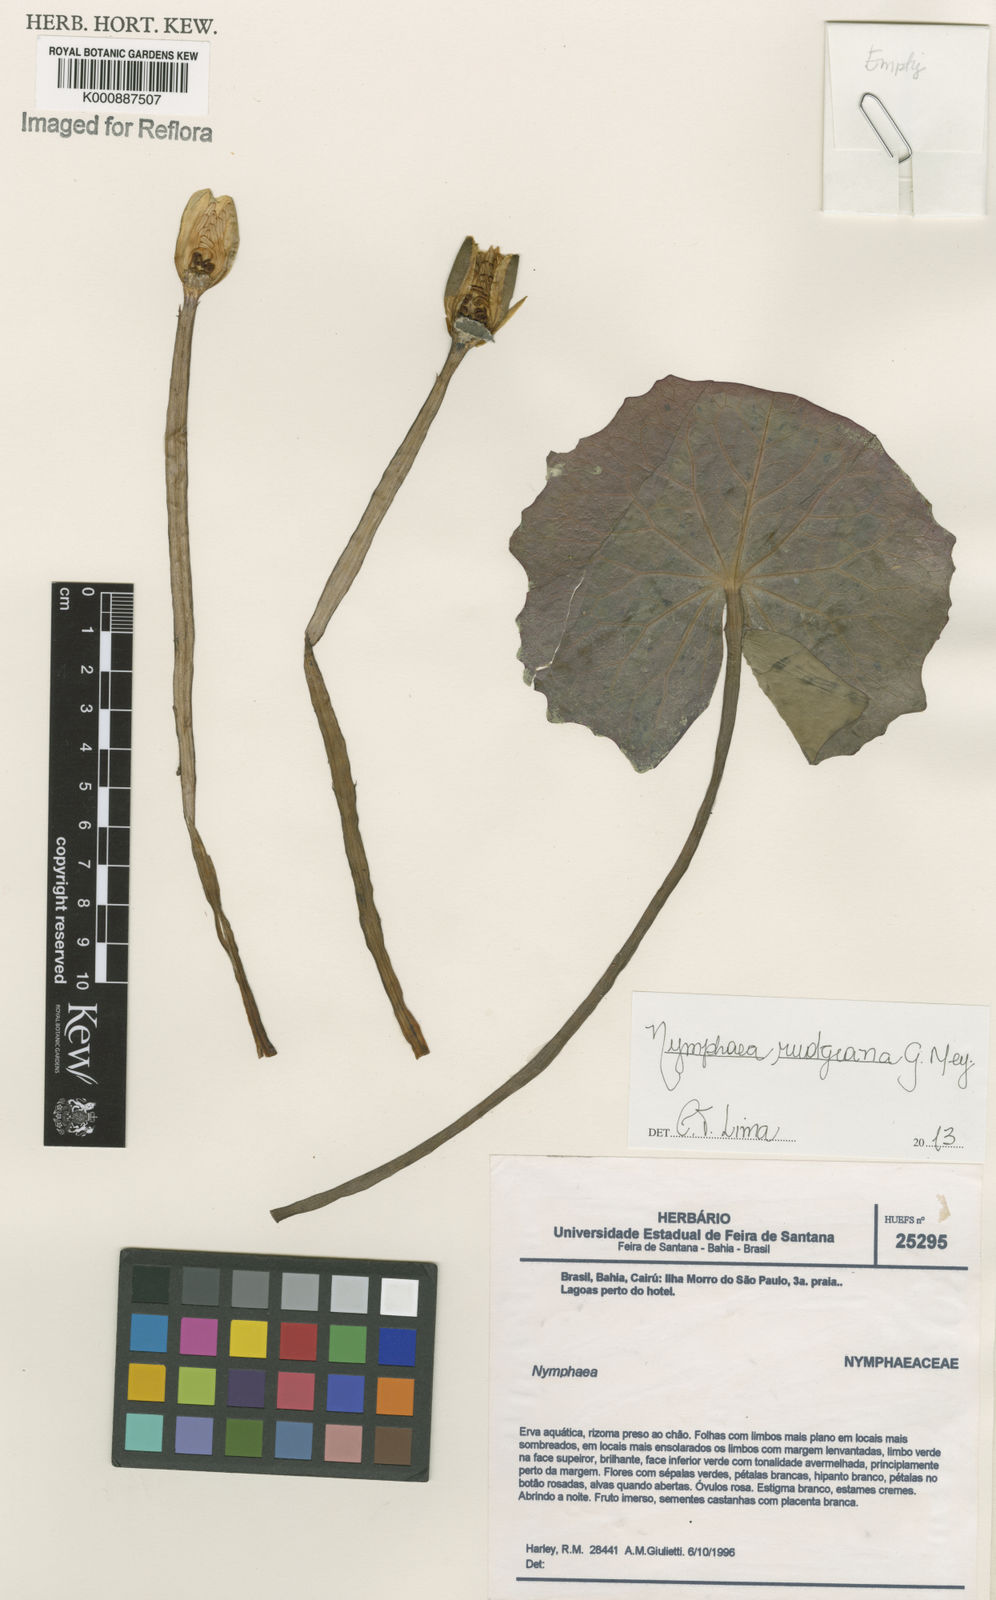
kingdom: Plantae
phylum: Tracheophyta
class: Magnoliopsida
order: Nymphaeales
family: Nymphaeaceae
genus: Nymphaea
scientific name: Nymphaea rudgeana
